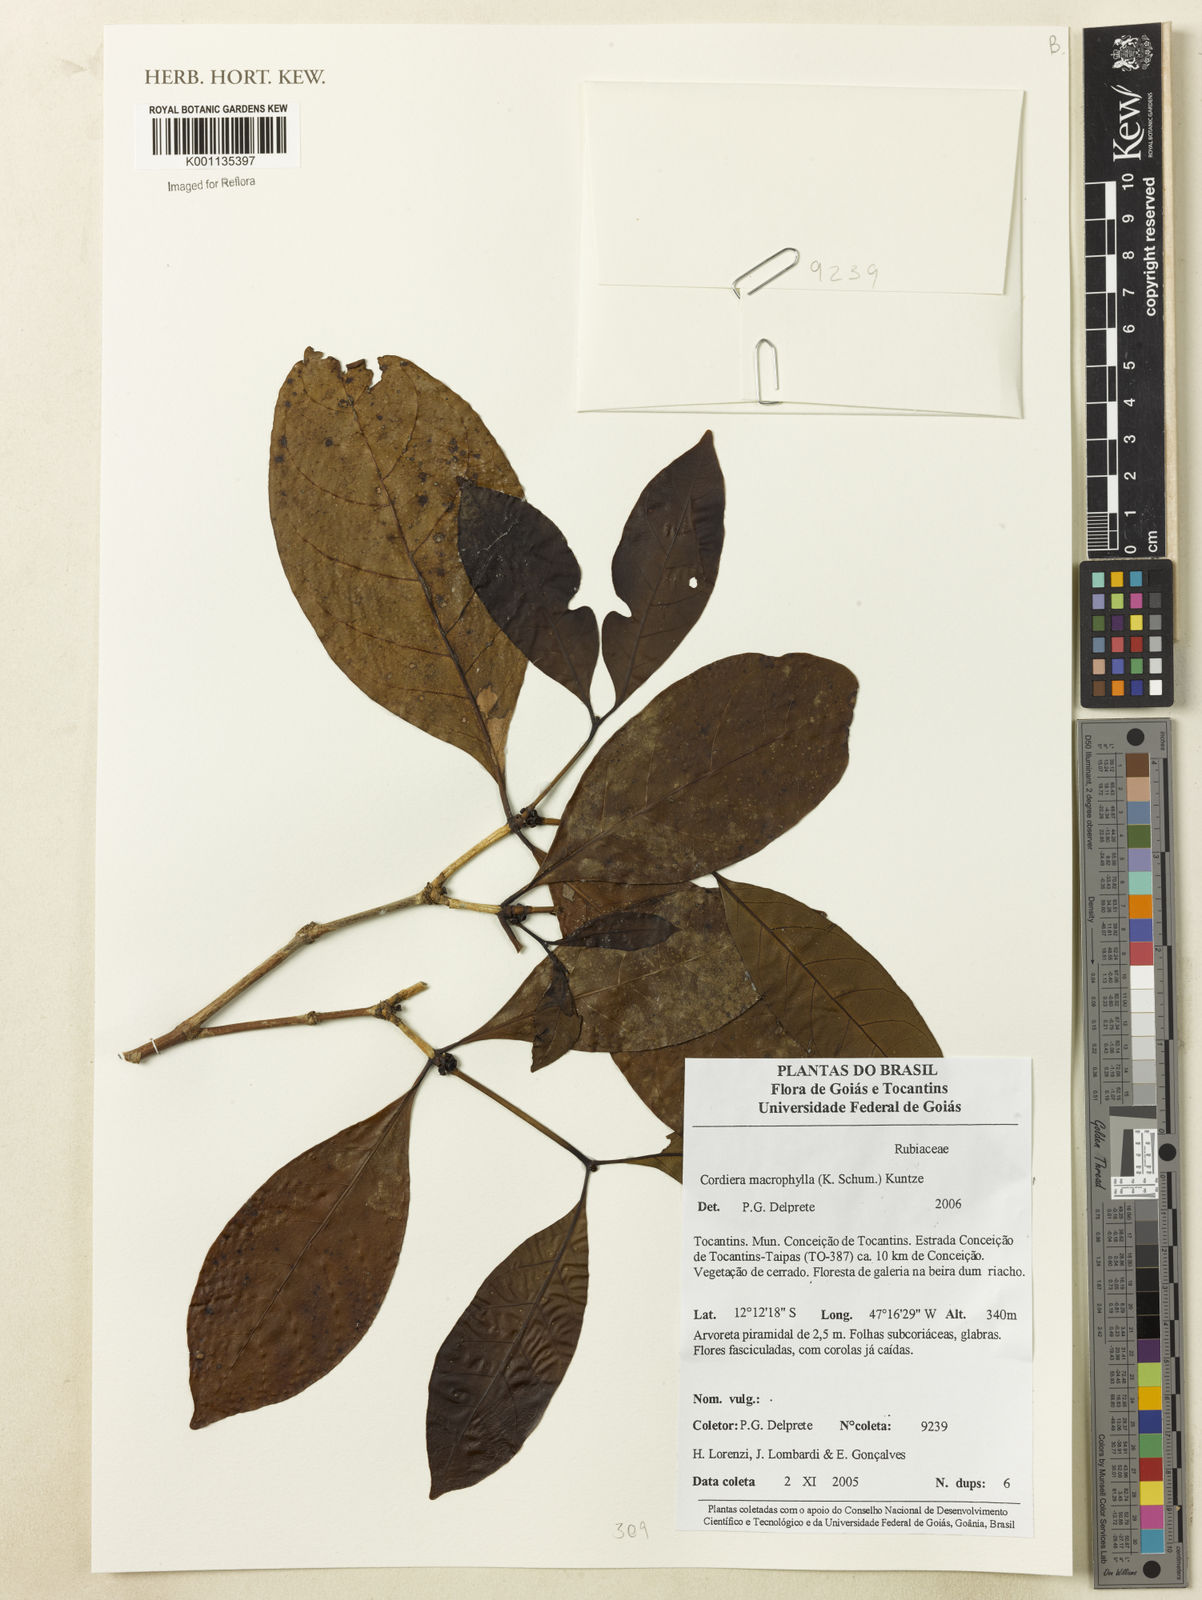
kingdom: Plantae
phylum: Tracheophyta
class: Magnoliopsida
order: Gentianales
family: Rubiaceae
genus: Cordiera
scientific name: Cordiera macrophylla
